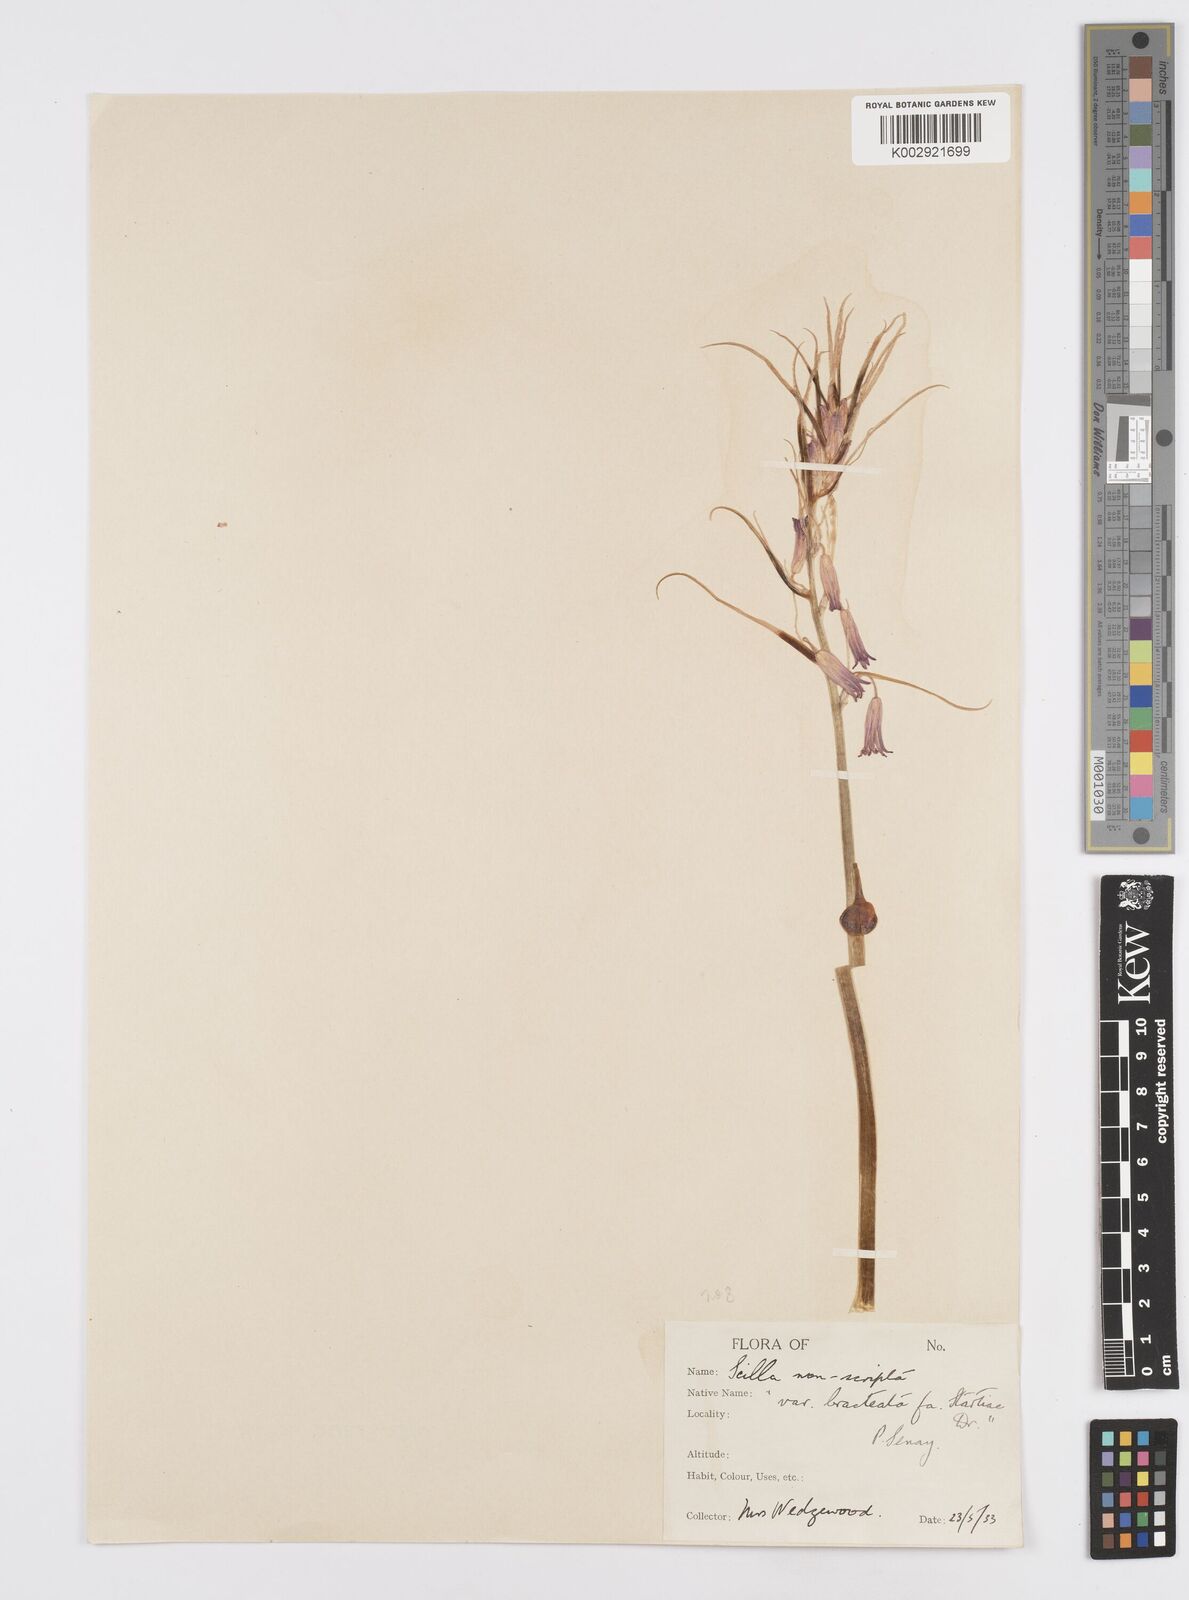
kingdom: Plantae
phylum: Tracheophyta
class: Liliopsida
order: Asparagales
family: Asparagaceae
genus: Hyacinthoides
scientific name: Hyacinthoides
